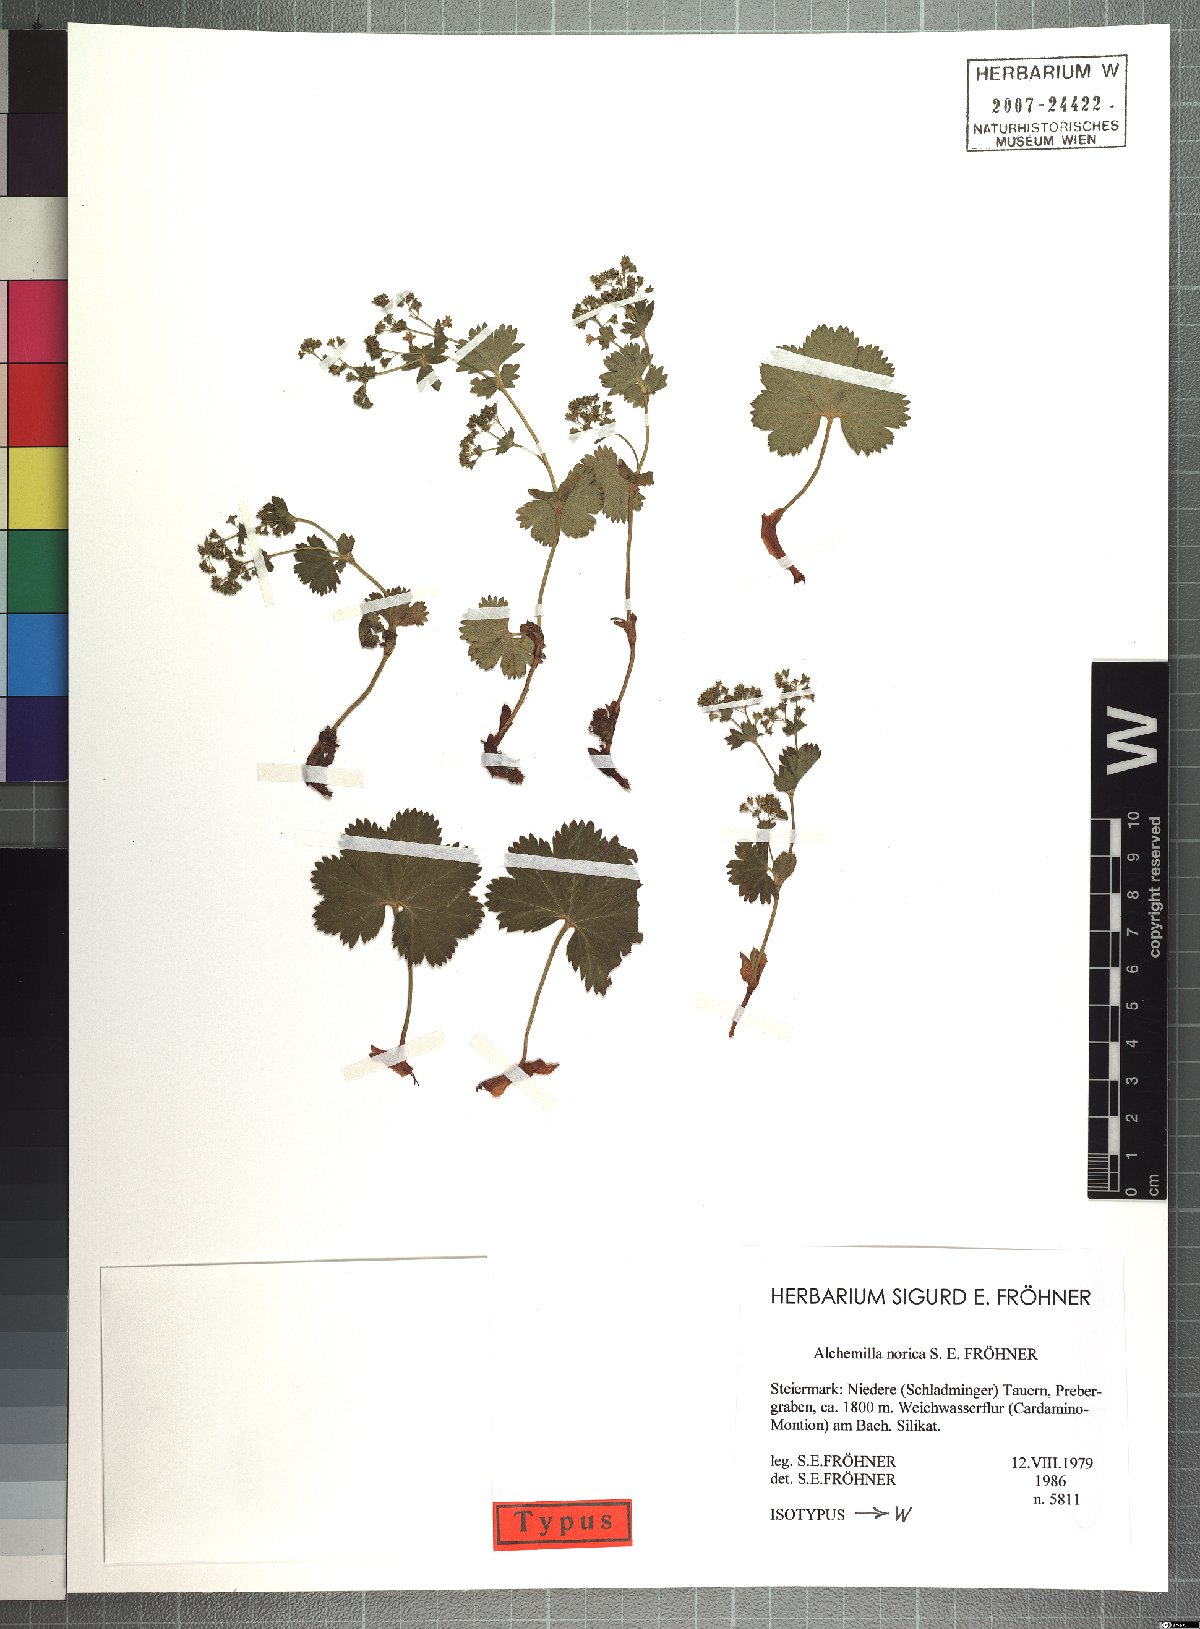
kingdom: Plantae
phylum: Tracheophyta
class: Magnoliopsida
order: Rosales
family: Rosaceae
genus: Alchemilla
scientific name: Alchemilla norica
